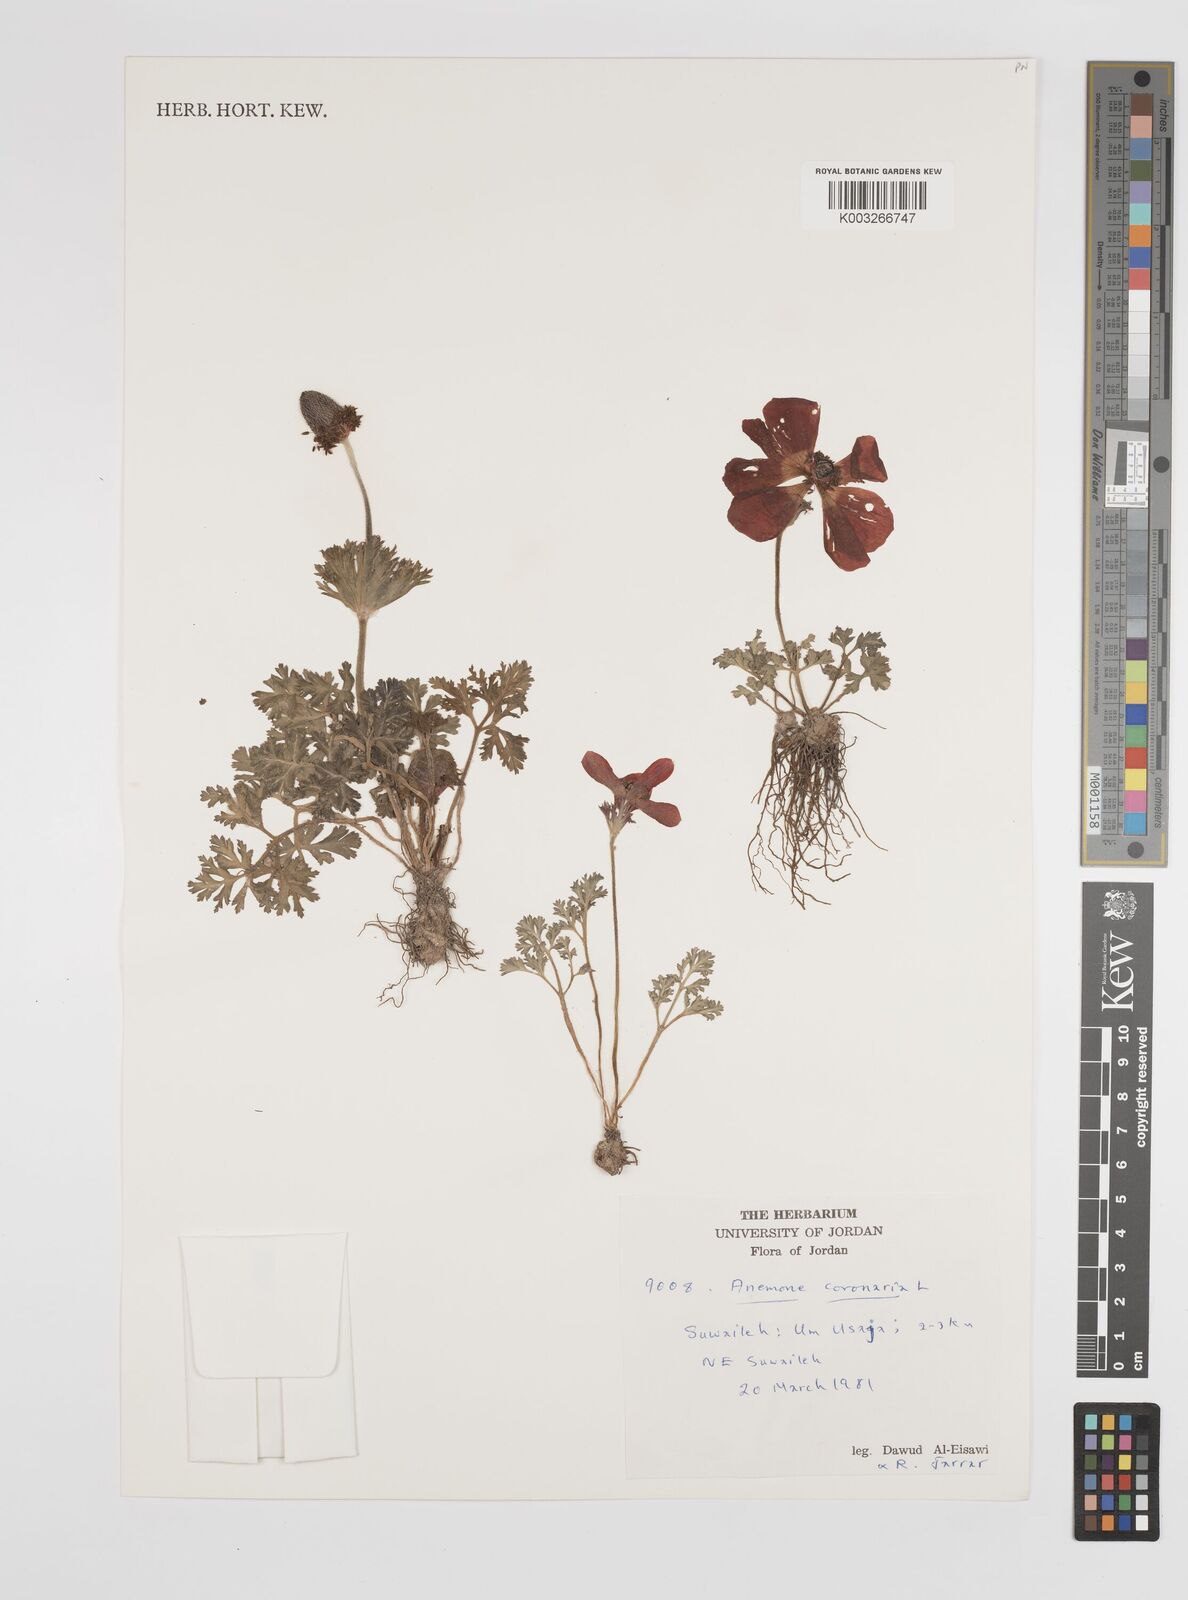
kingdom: Plantae
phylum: Tracheophyta
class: Magnoliopsida
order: Ranunculales
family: Ranunculaceae
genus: Anemone
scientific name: Anemone coronaria
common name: Poppy anemone
